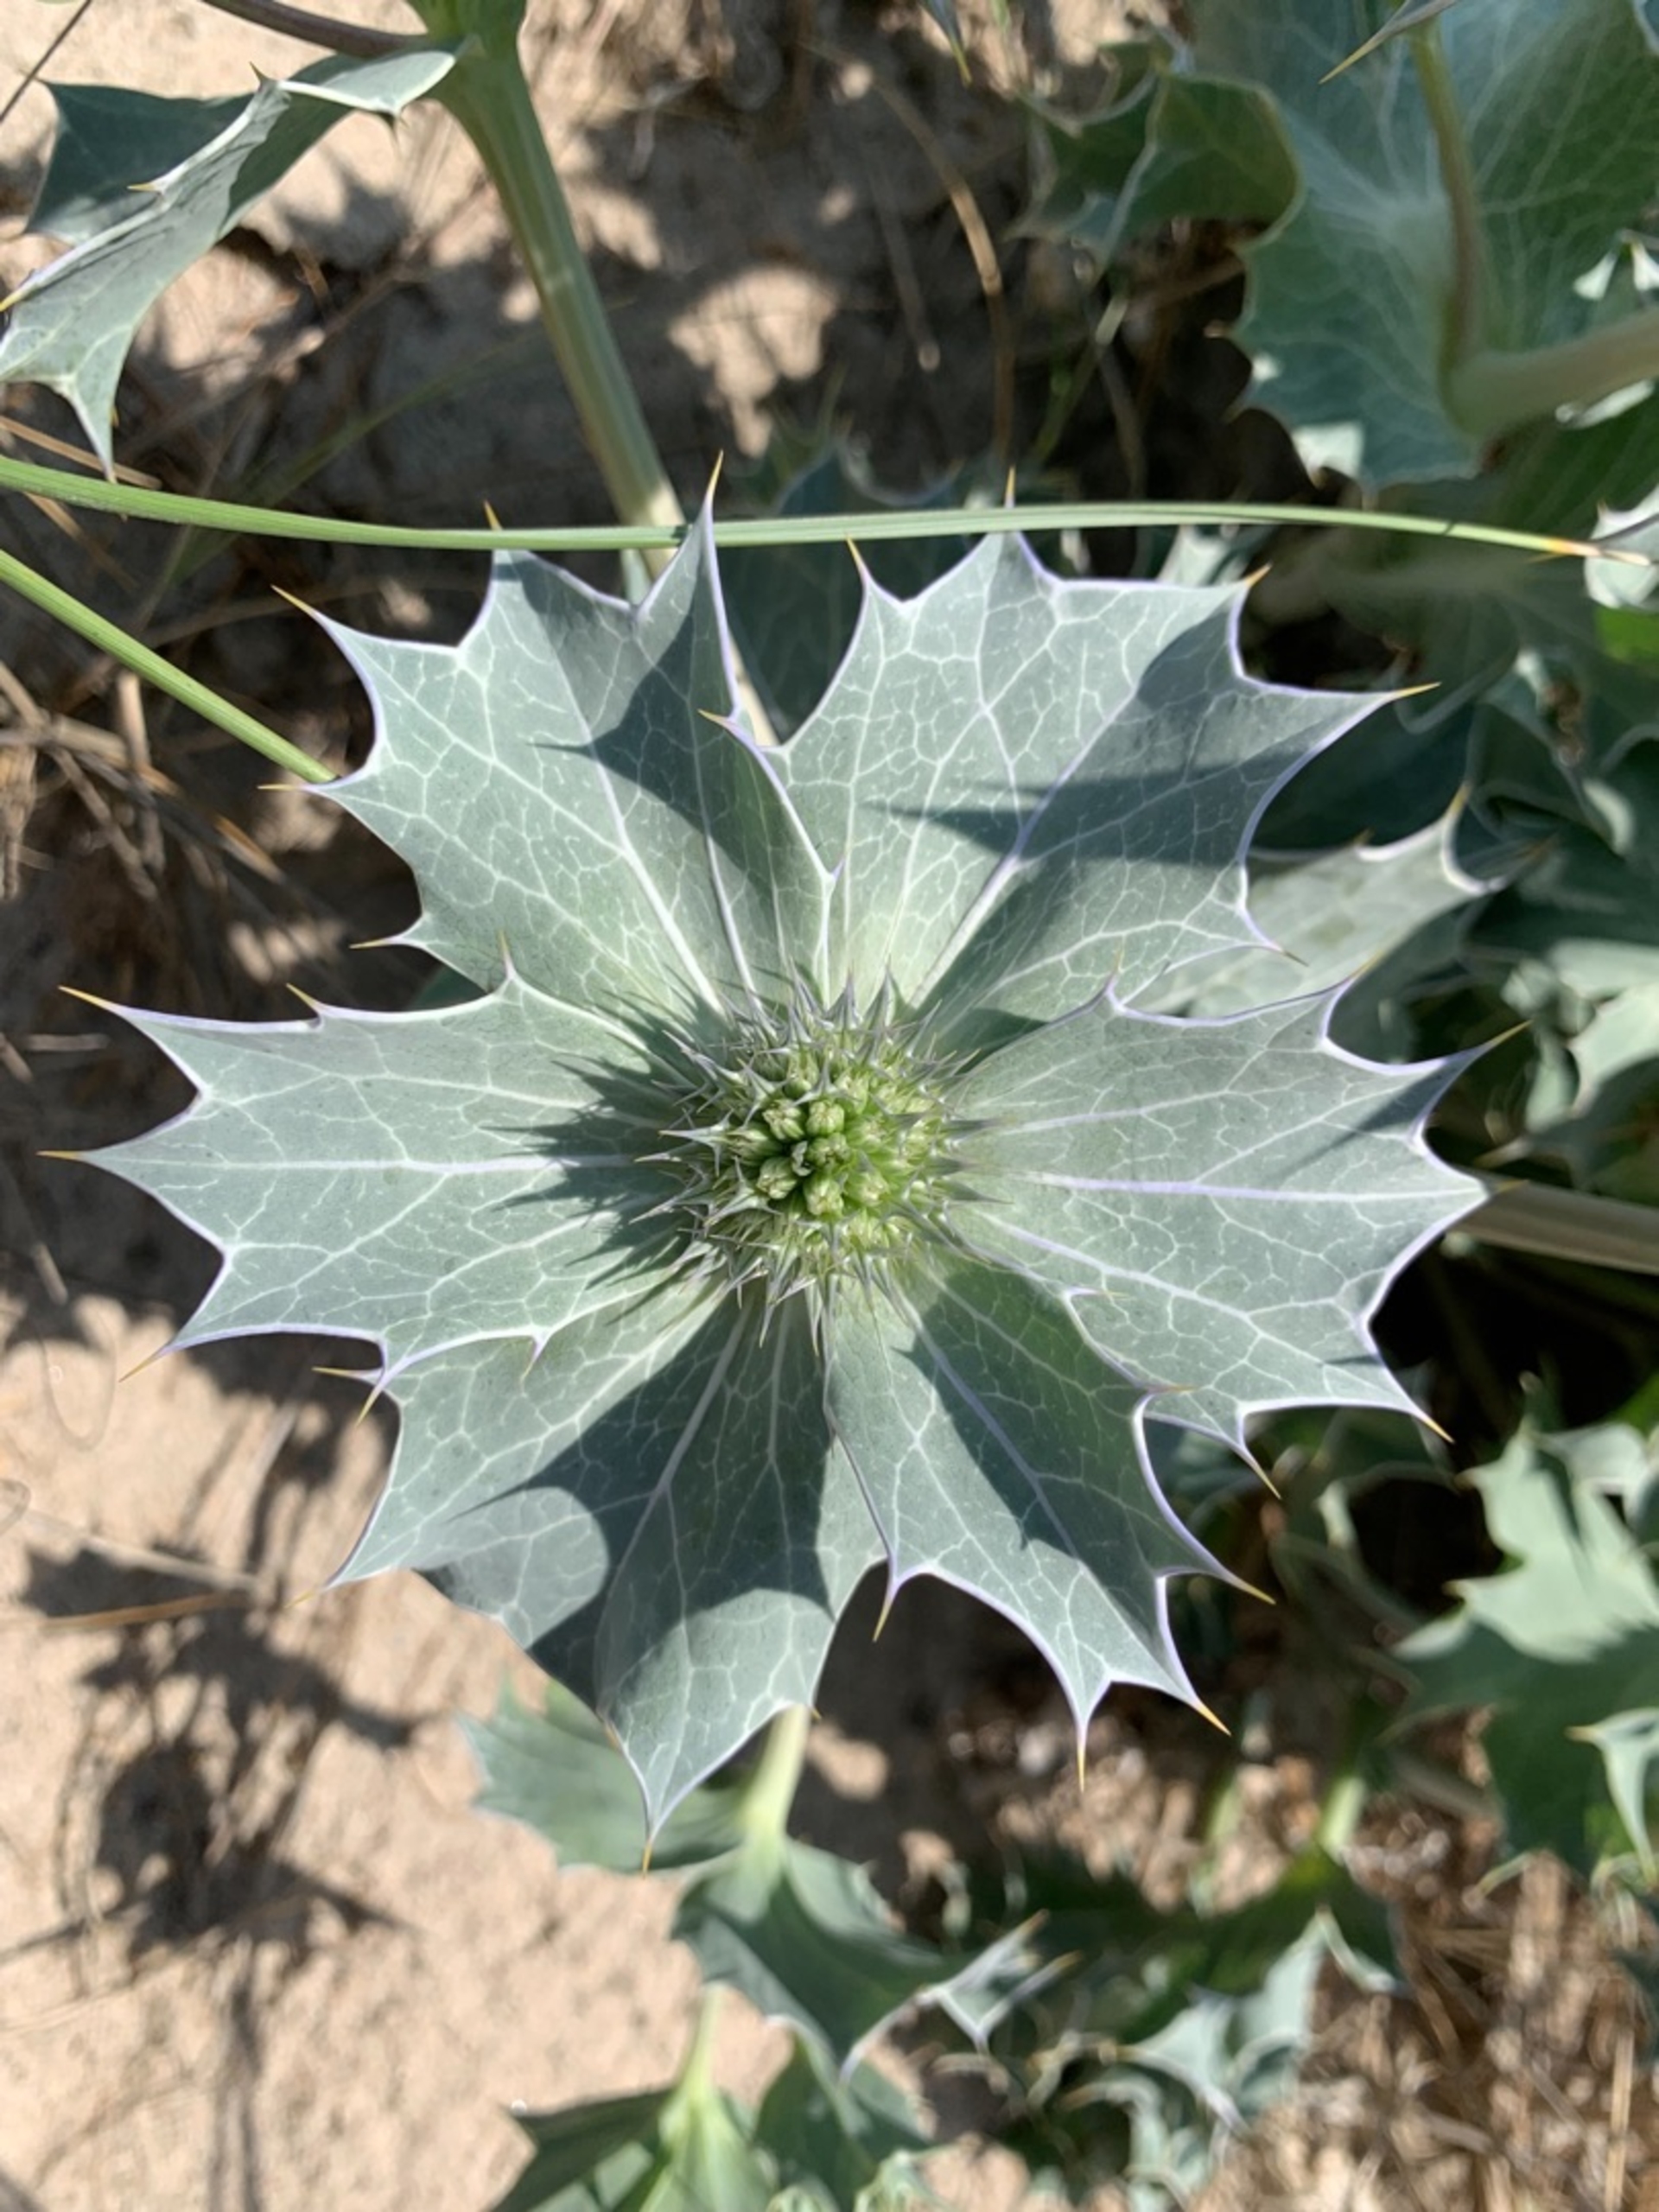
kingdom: Plantae
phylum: Tracheophyta
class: Magnoliopsida
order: Apiales
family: Apiaceae
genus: Eryngium
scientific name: Eryngium maritimum
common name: Strand-mandstro
